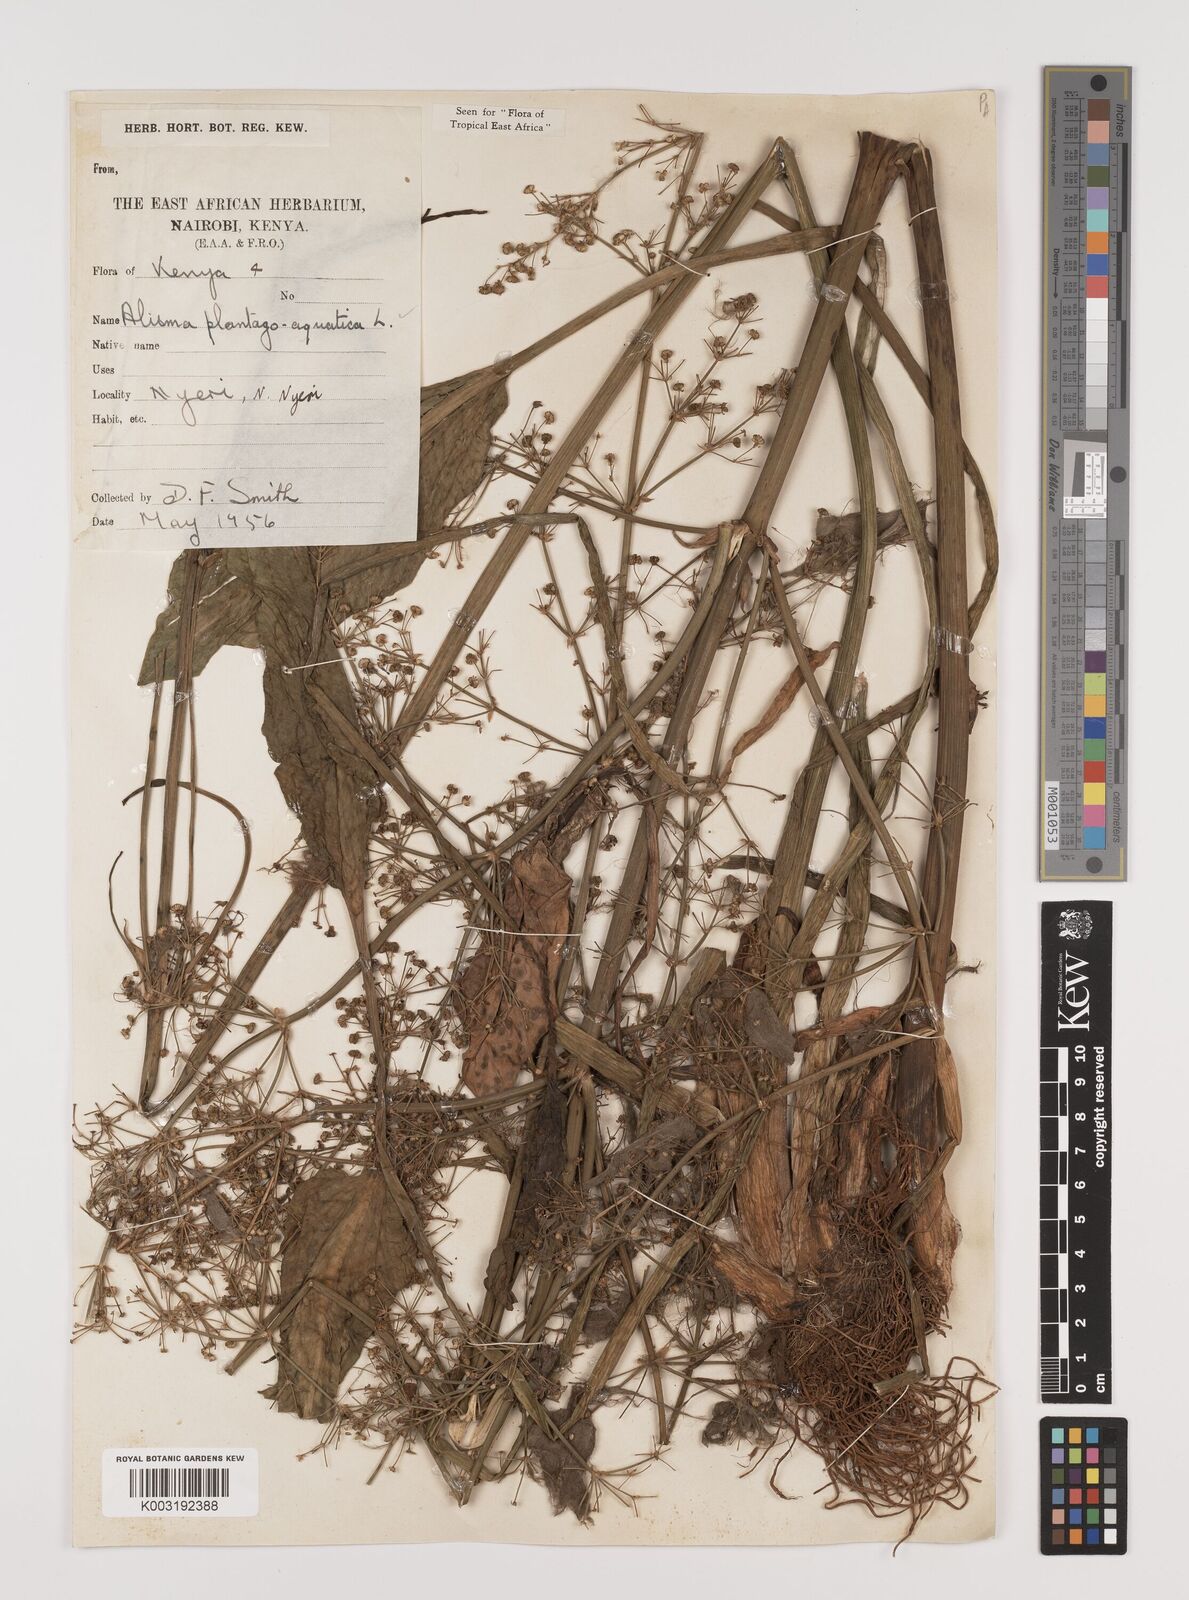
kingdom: Plantae
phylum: Tracheophyta
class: Liliopsida
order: Alismatales
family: Alismataceae
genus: Alisma
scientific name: Alisma plantago-aquatica
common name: Water-plantain
